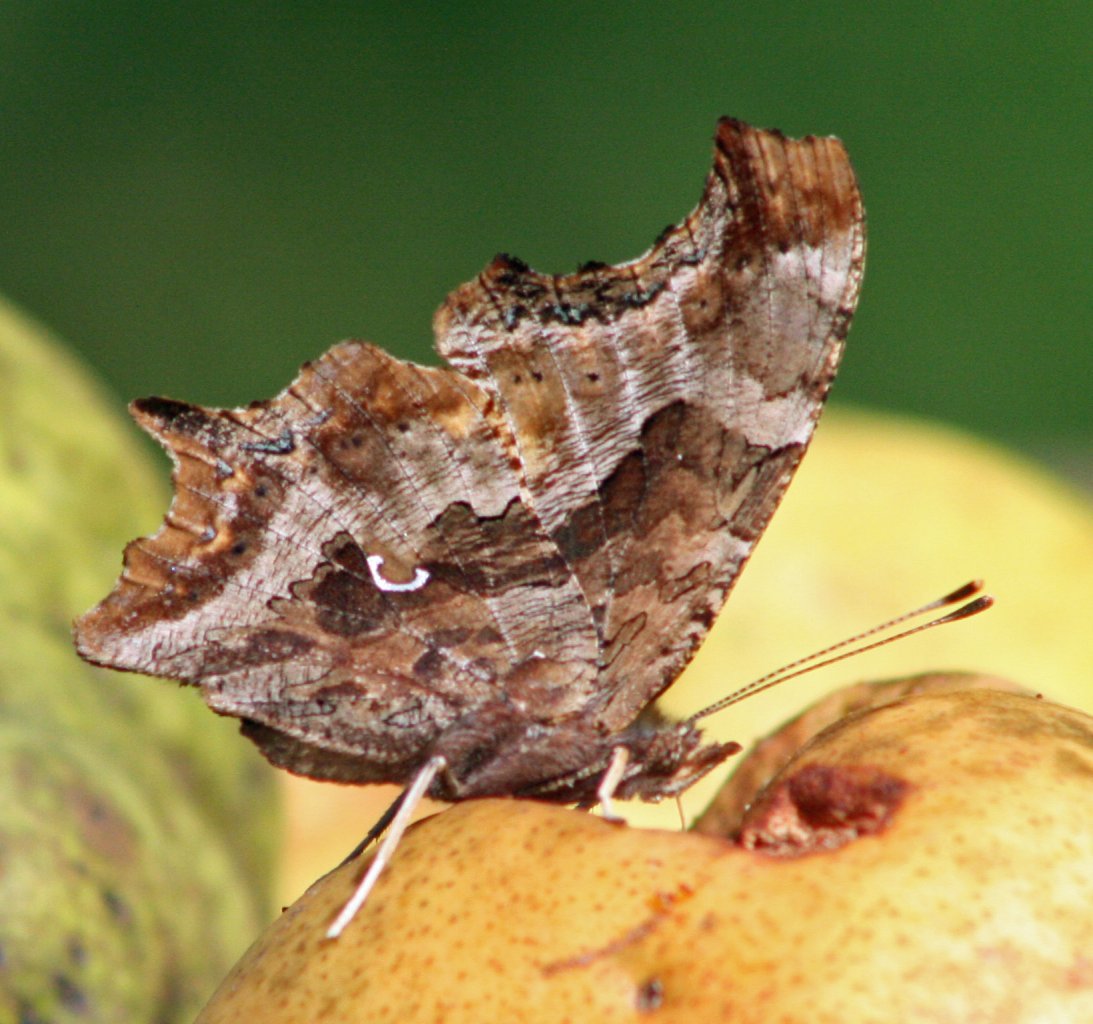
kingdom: Animalia
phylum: Arthropoda
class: Insecta
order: Lepidoptera
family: Nymphalidae
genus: Polygonia
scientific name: Polygonia comma
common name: Eastern Comma
